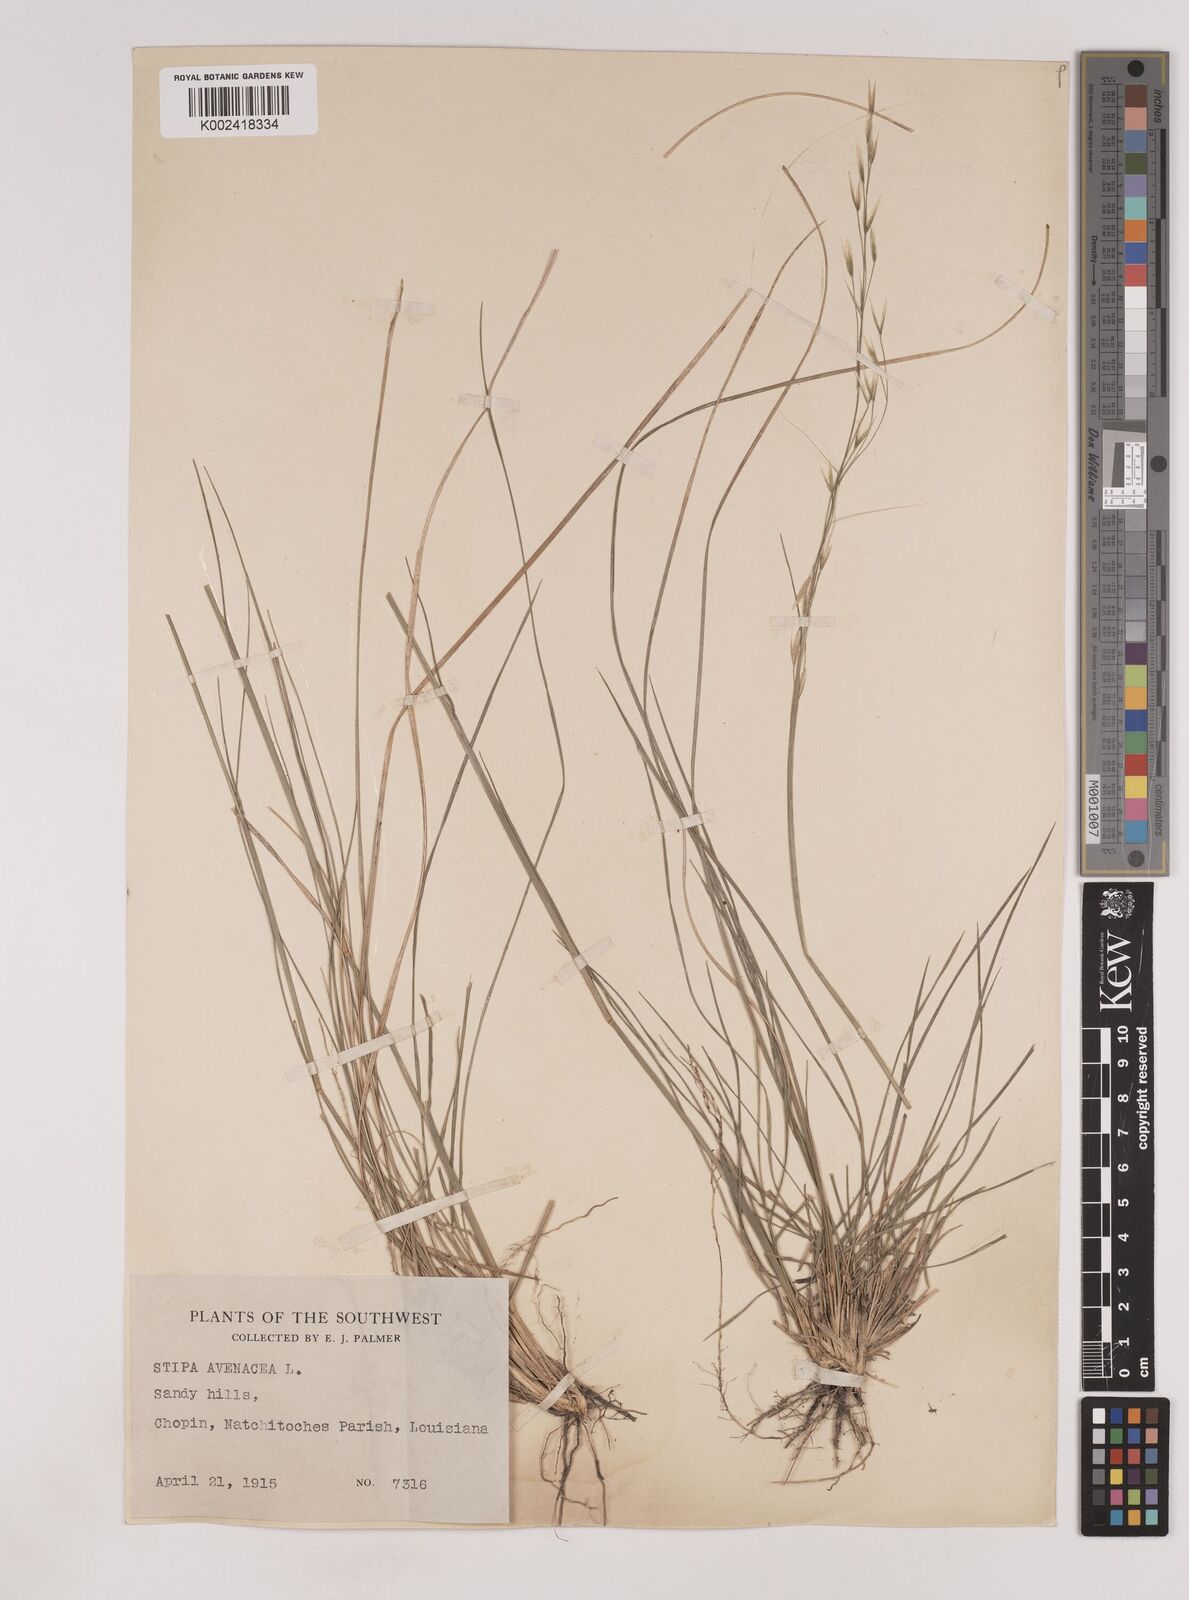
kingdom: Plantae
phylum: Tracheophyta
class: Liliopsida
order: Poales
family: Poaceae
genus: Piptochaetium
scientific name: Piptochaetium avenaceum
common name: Black bunchgrass
